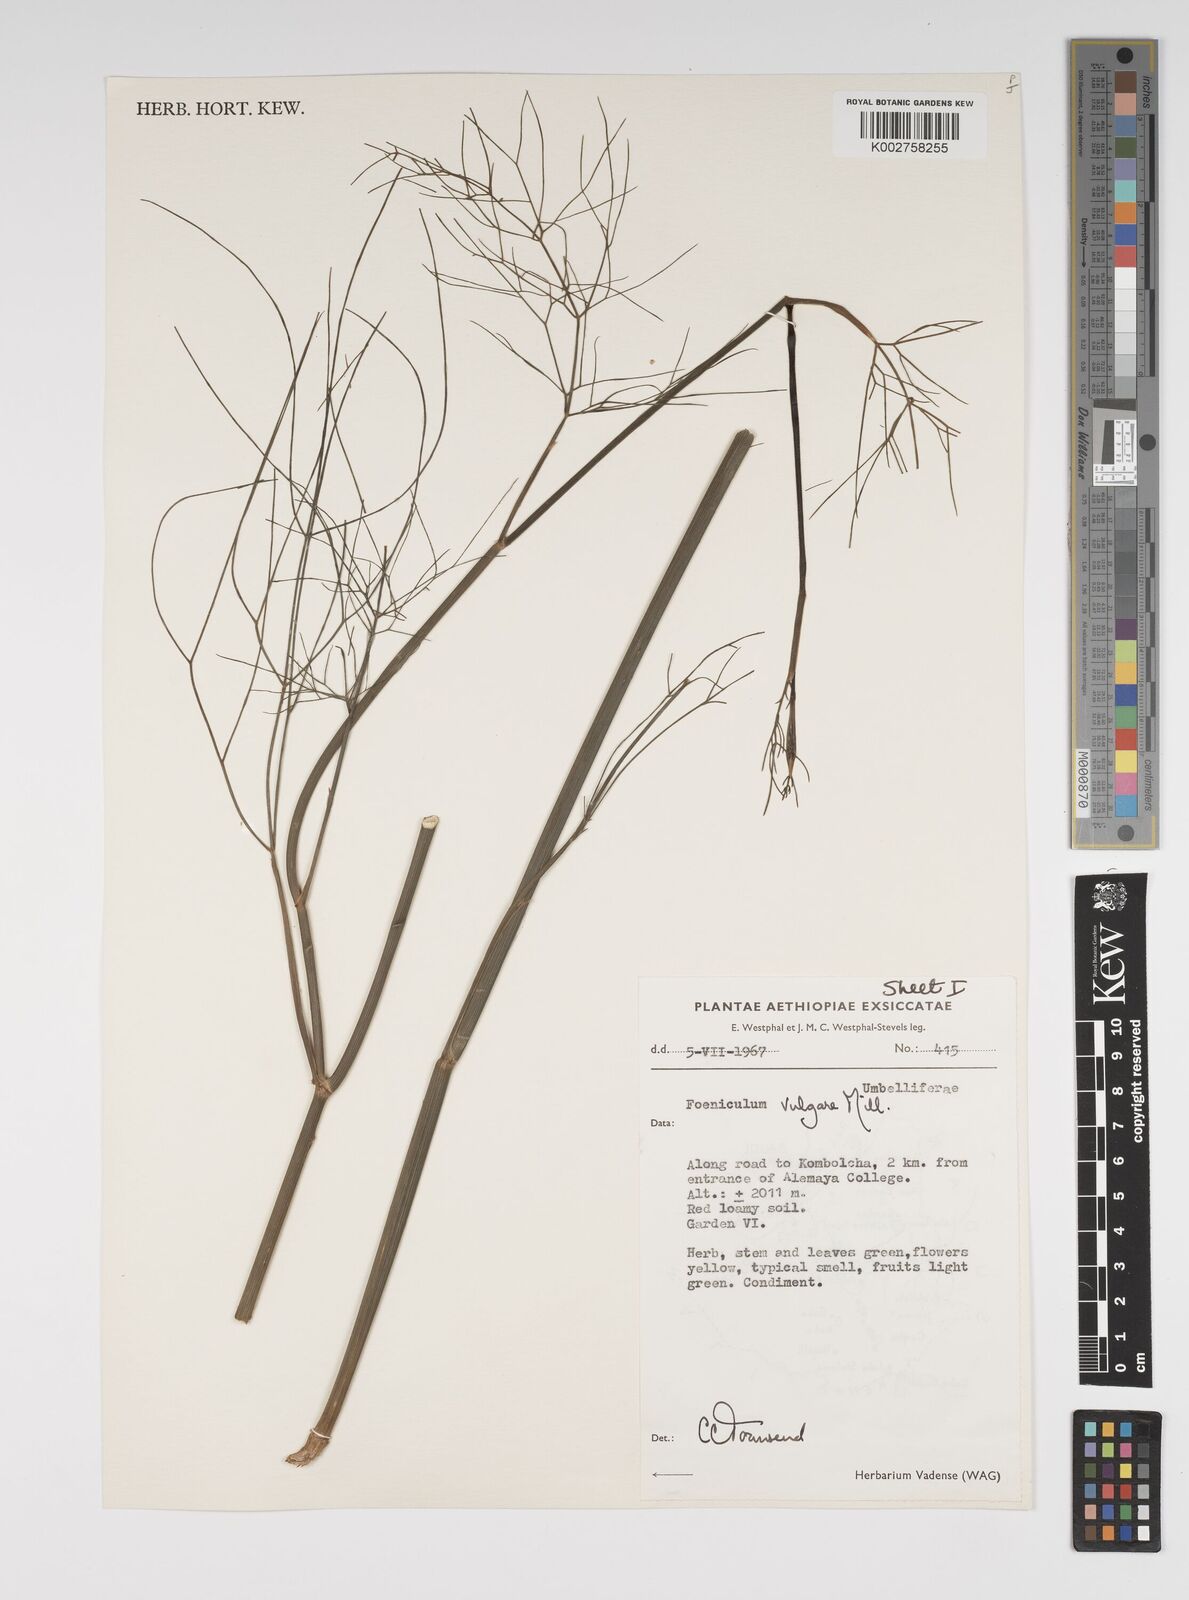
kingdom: Plantae
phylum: Tracheophyta
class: Magnoliopsida
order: Apiales
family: Apiaceae
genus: Foeniculum
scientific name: Foeniculum vulgare
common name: Fennel
